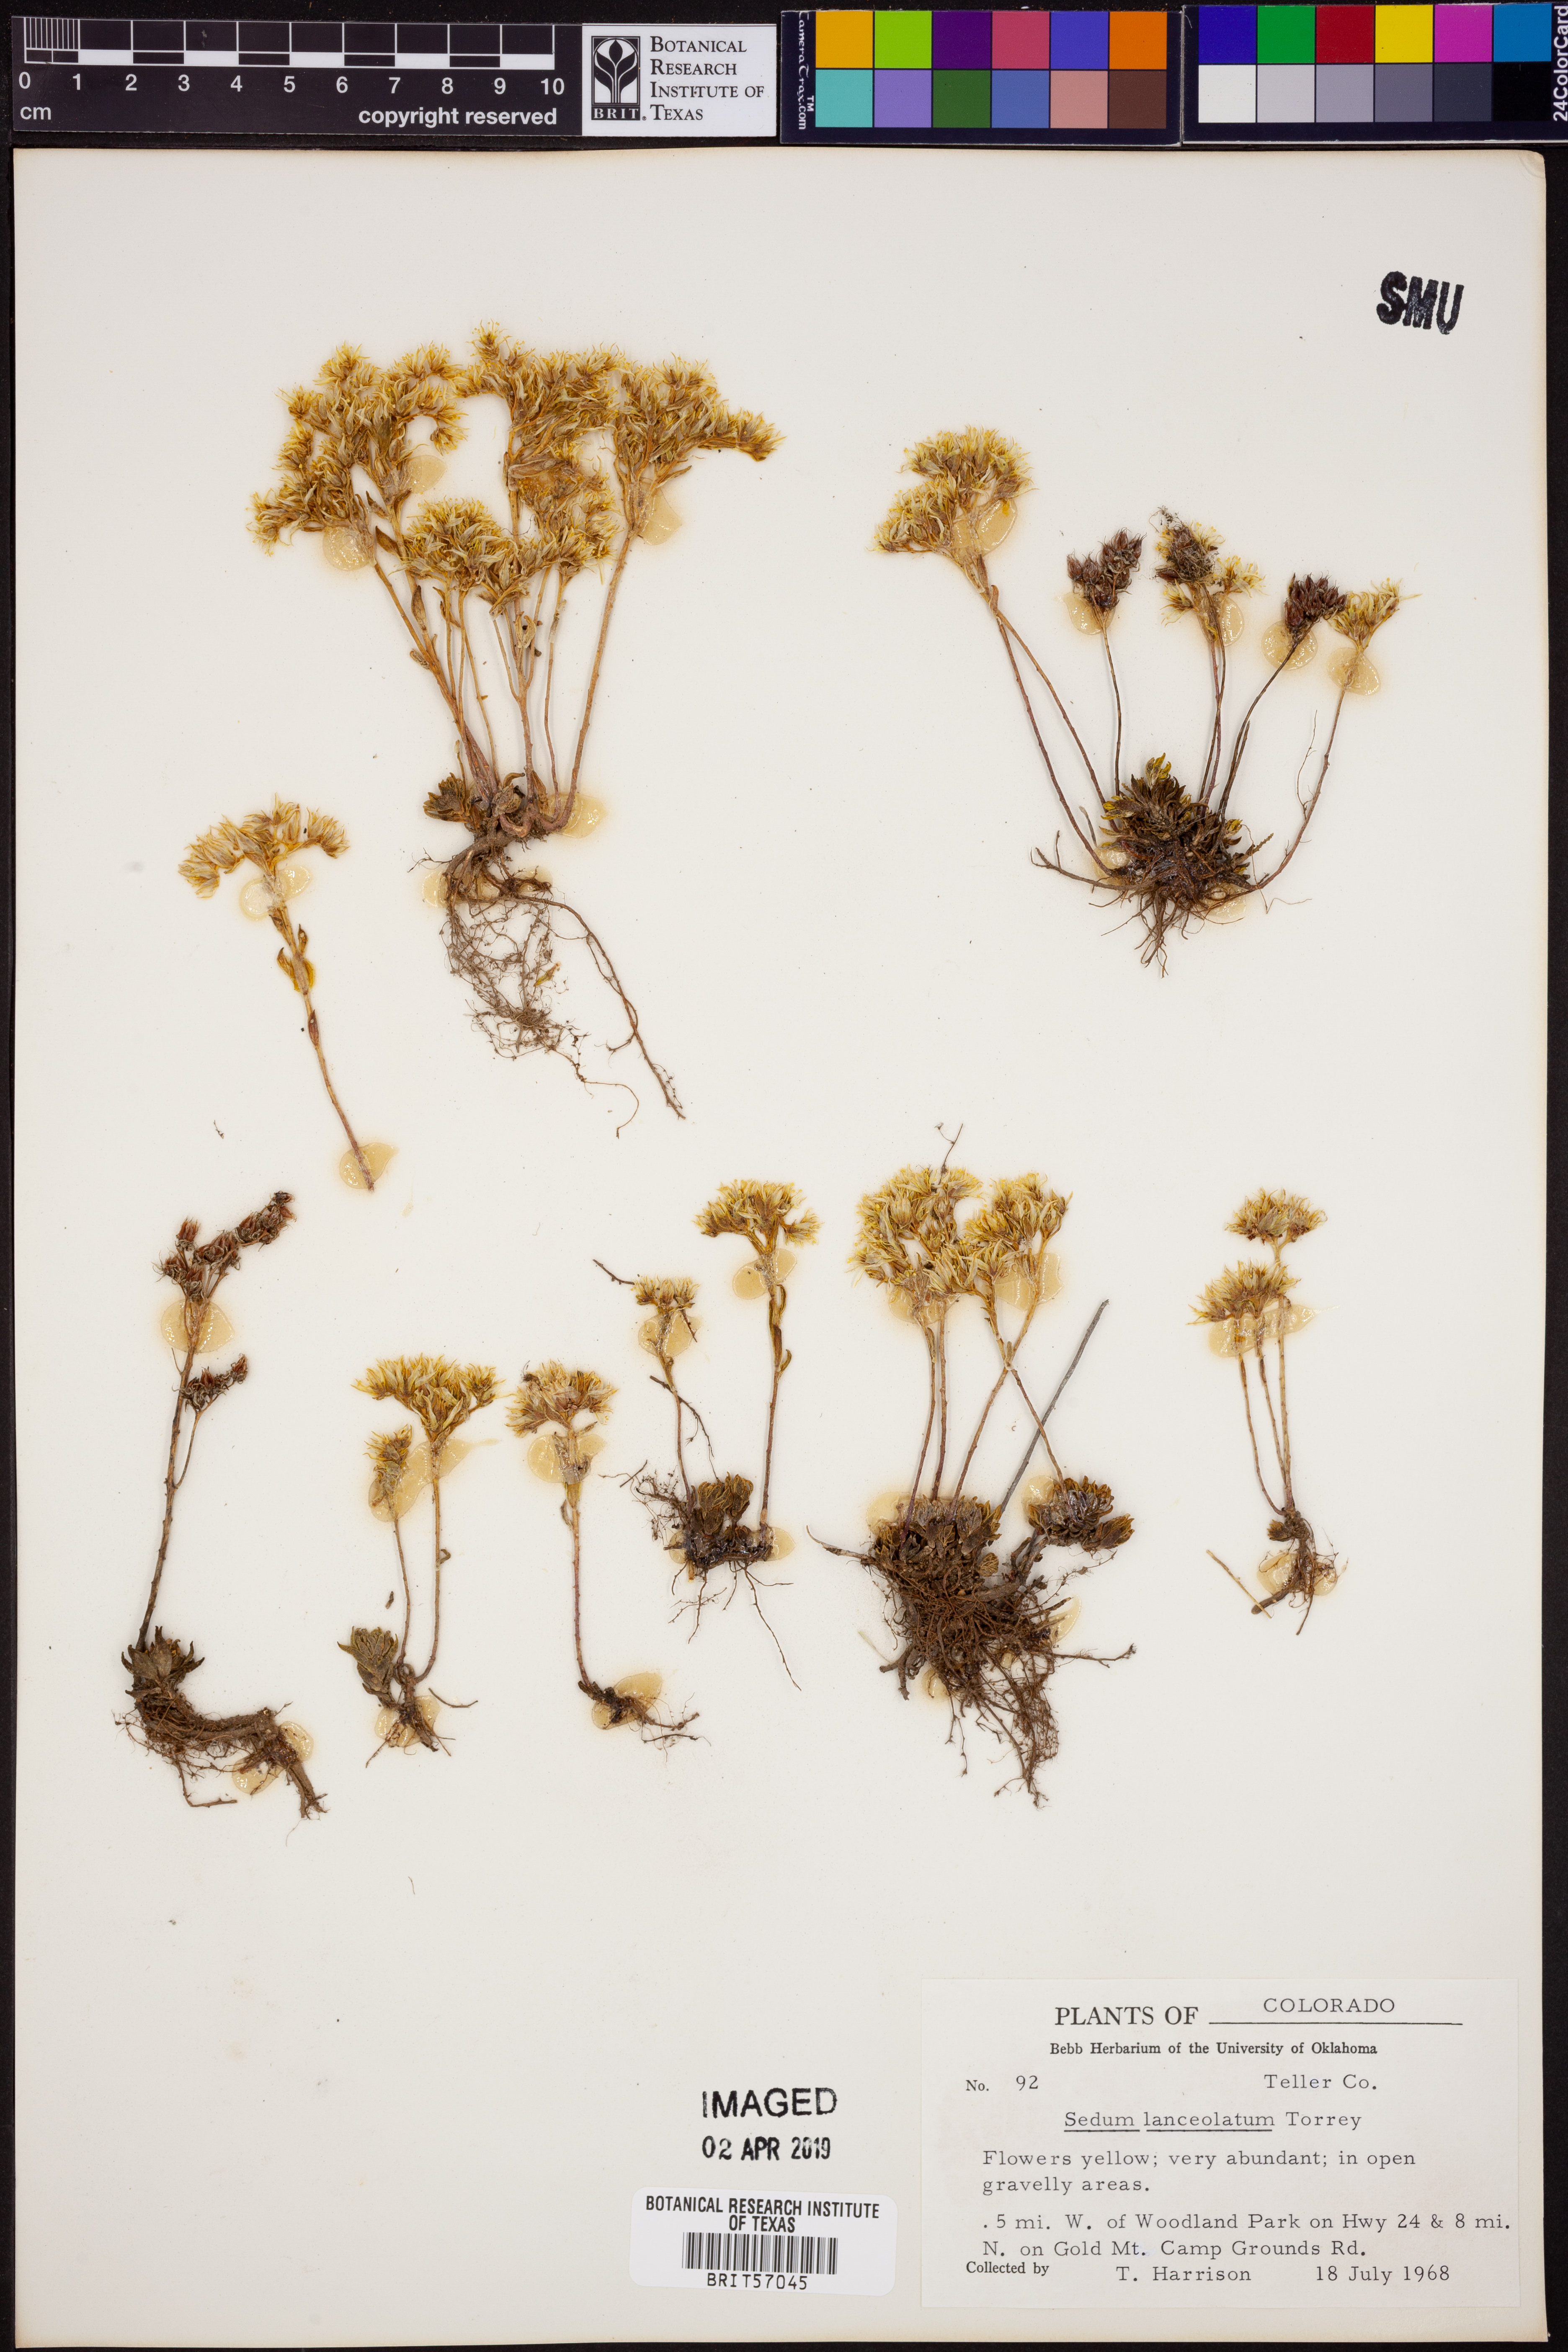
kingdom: Plantae
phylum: Tracheophyta
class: Magnoliopsida
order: Saxifragales
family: Crassulaceae
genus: Sedum
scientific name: Sedum lanceolatum
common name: Common stonecrop
